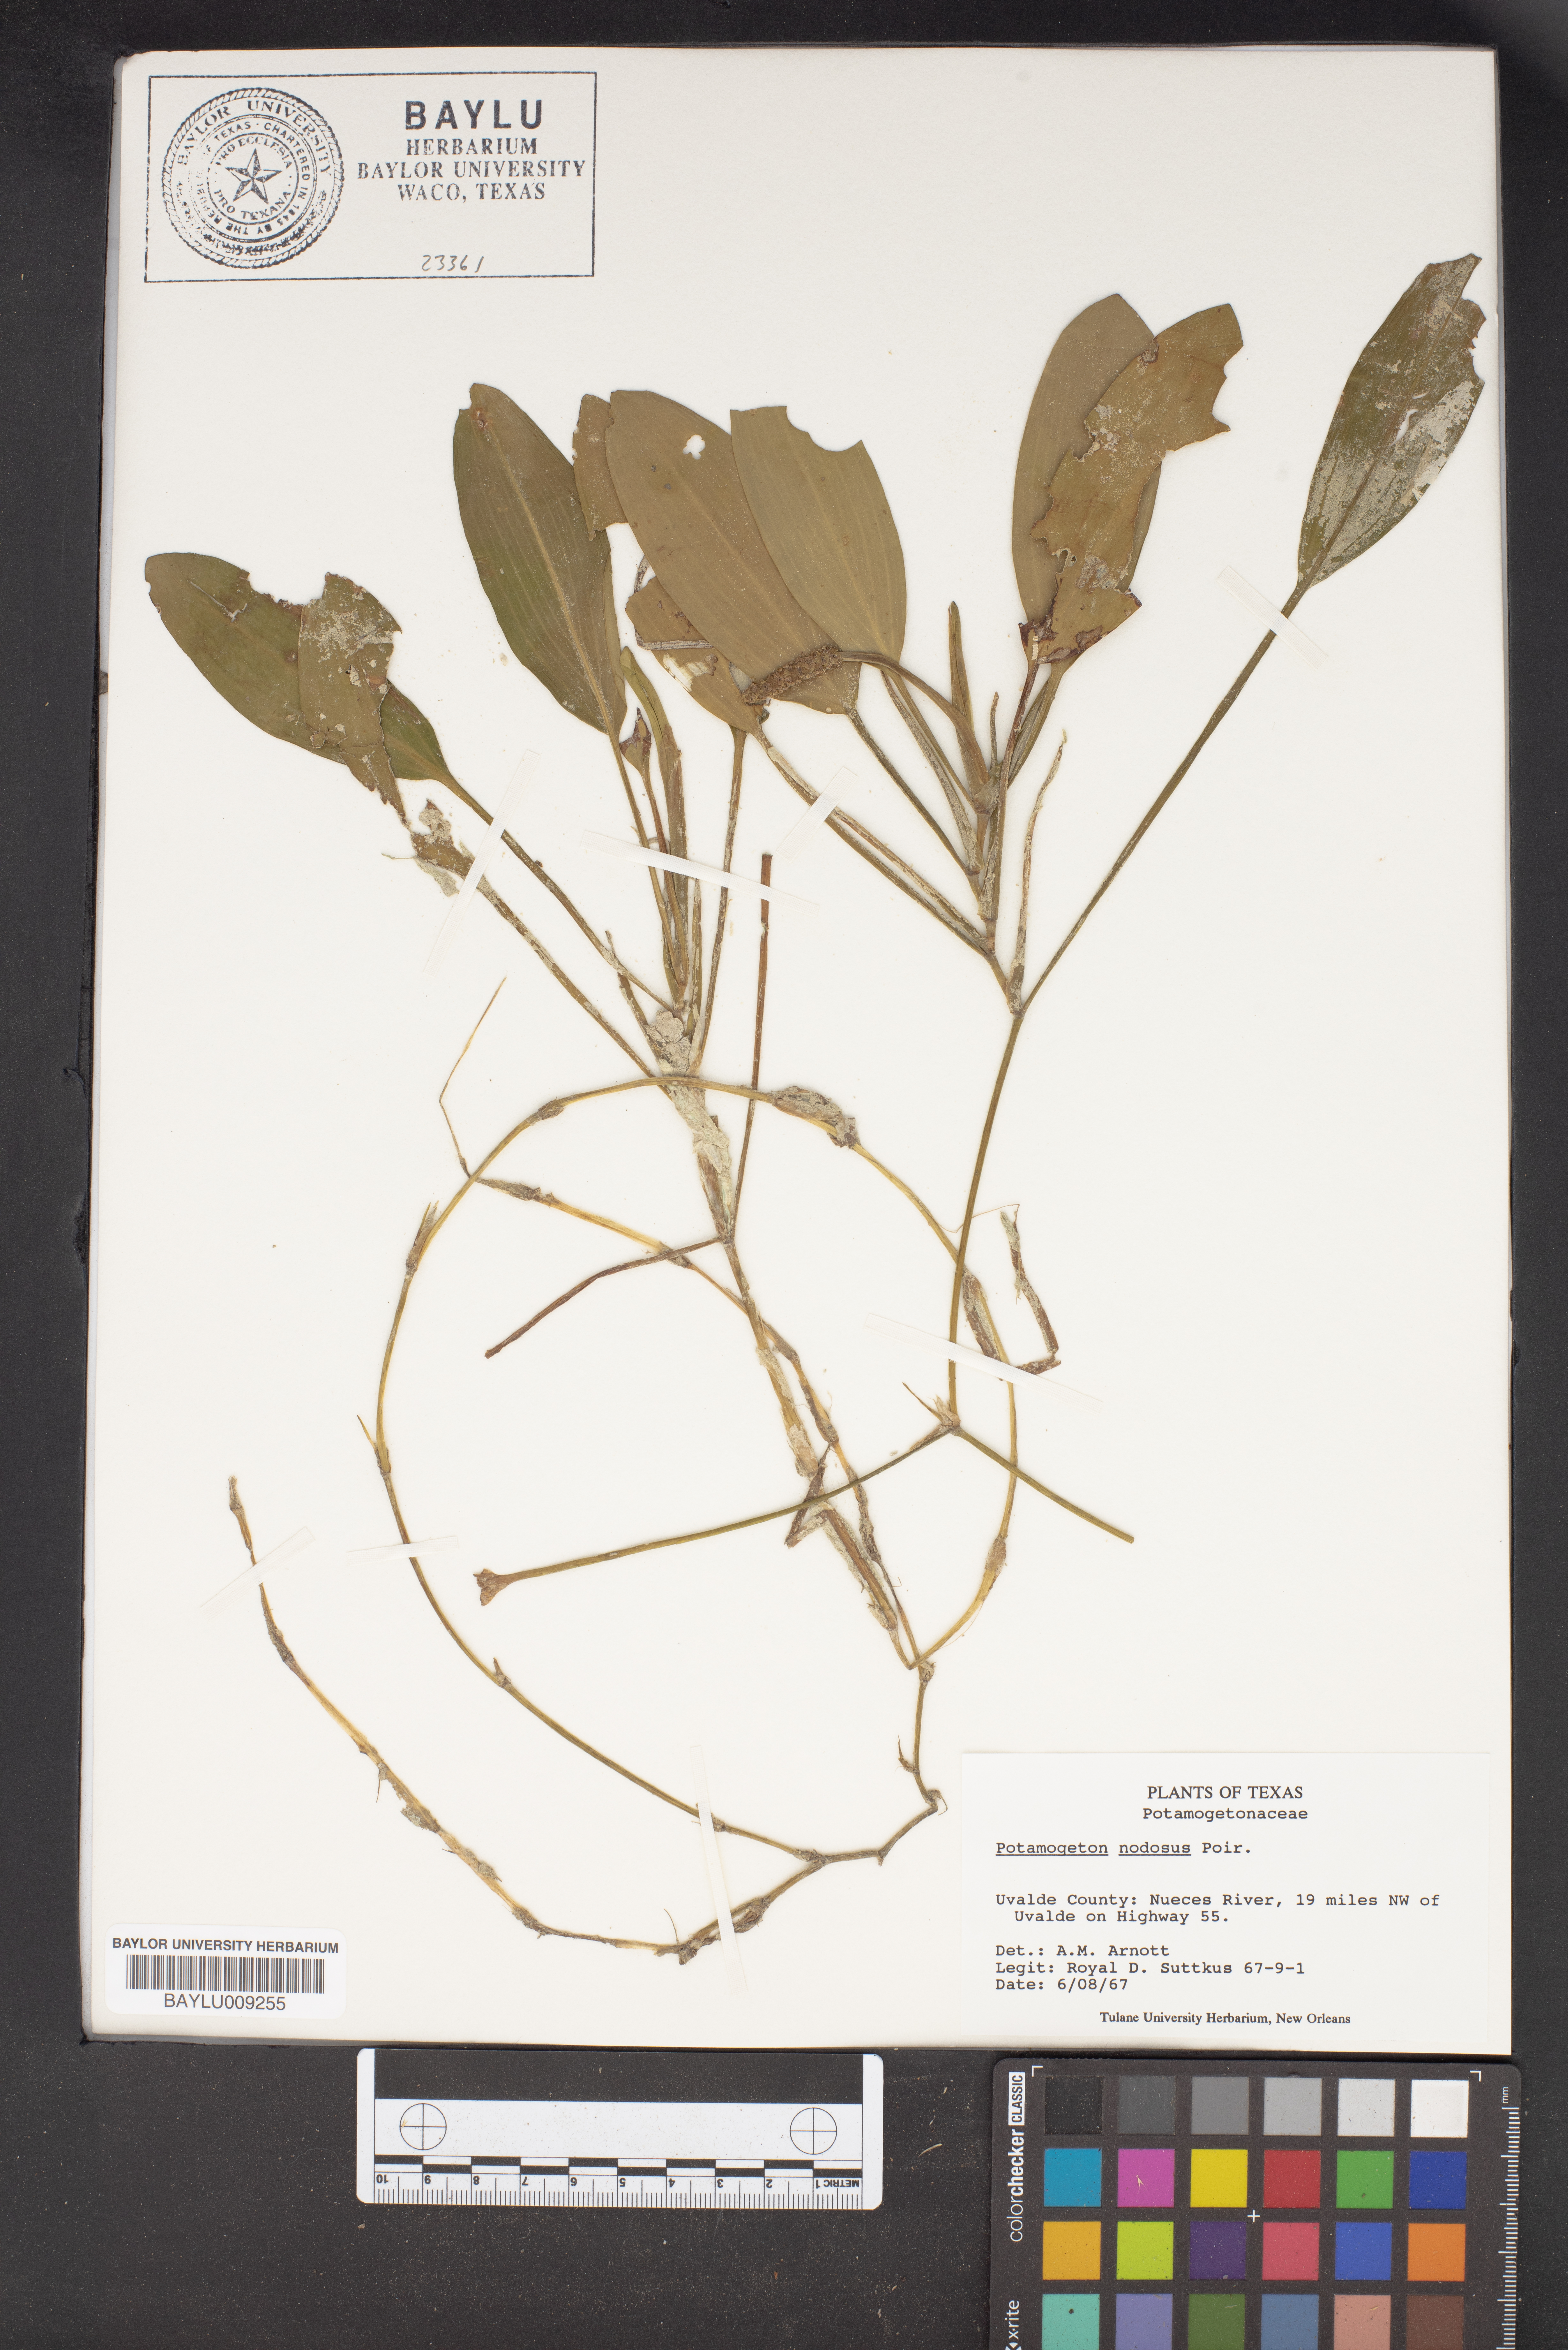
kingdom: Plantae
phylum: Tracheophyta
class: Liliopsida
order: Alismatales
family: Potamogetonaceae
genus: Potamogeton
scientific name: Potamogeton nodosus
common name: Loddon pondweed
